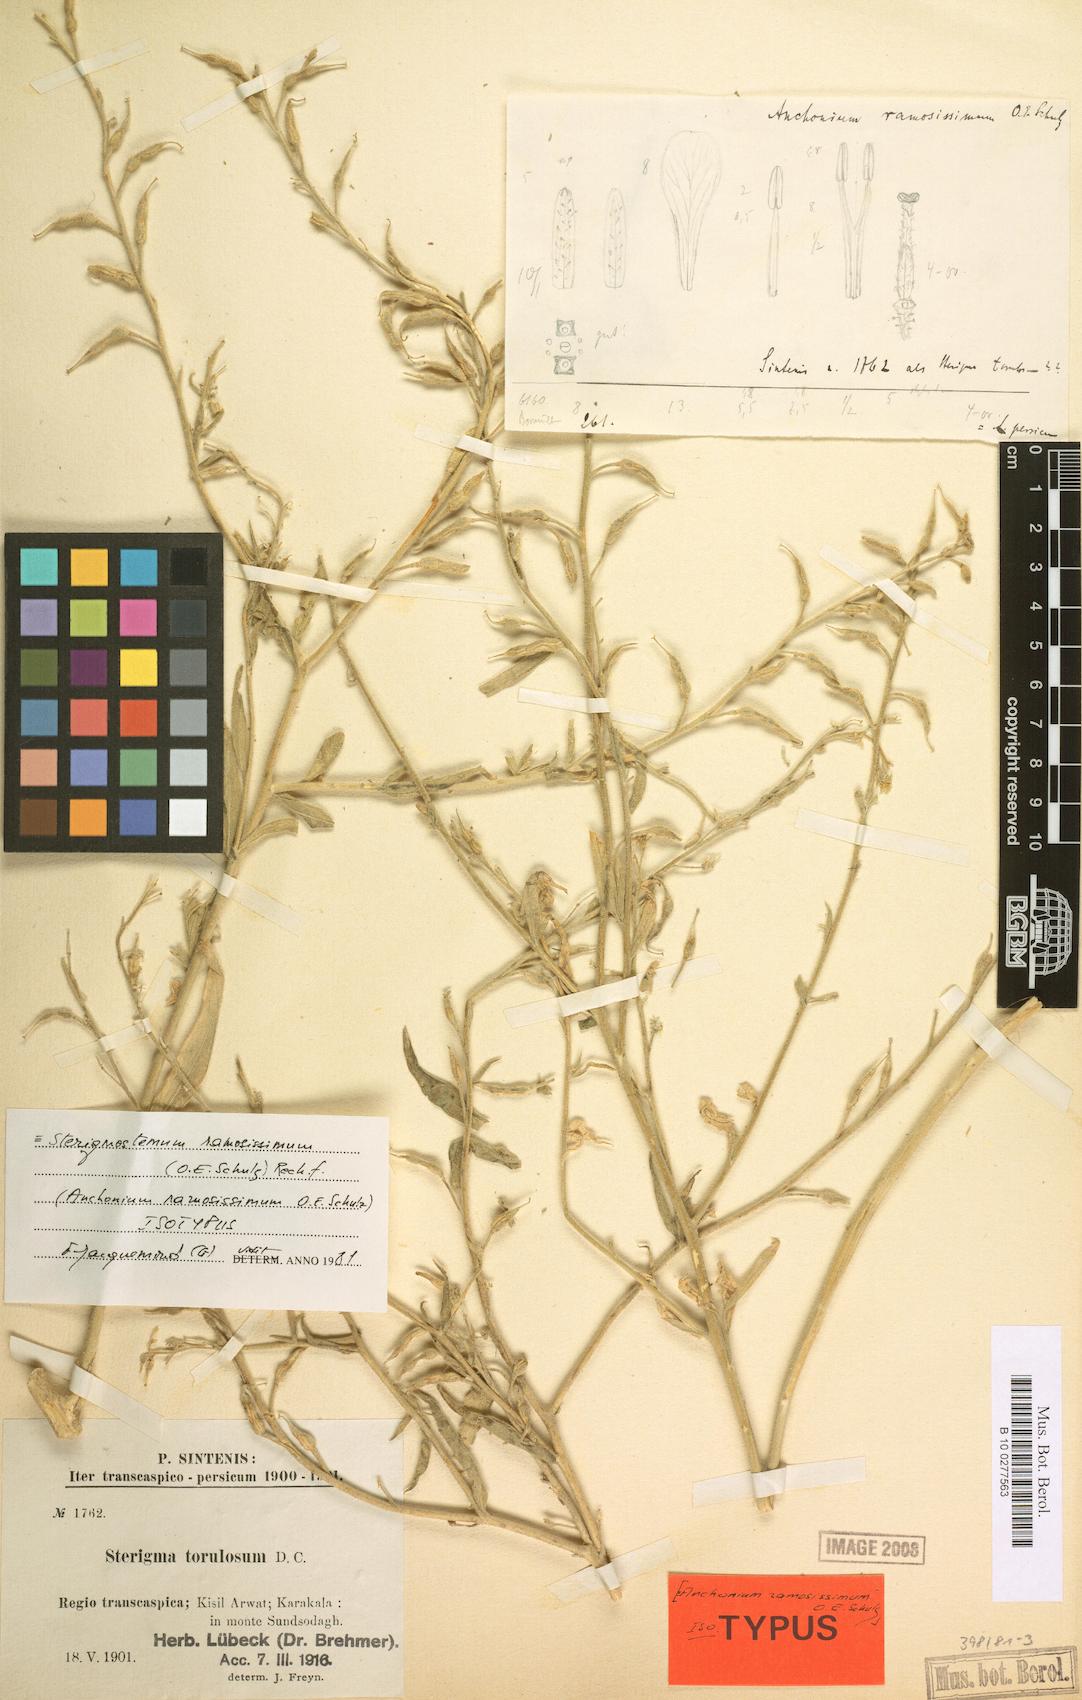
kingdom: Plantae
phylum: Tracheophyta
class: Magnoliopsida
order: Brassicales
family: Brassicaceae
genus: Sterigmostemum
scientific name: Sterigmostemum ramosissimum
